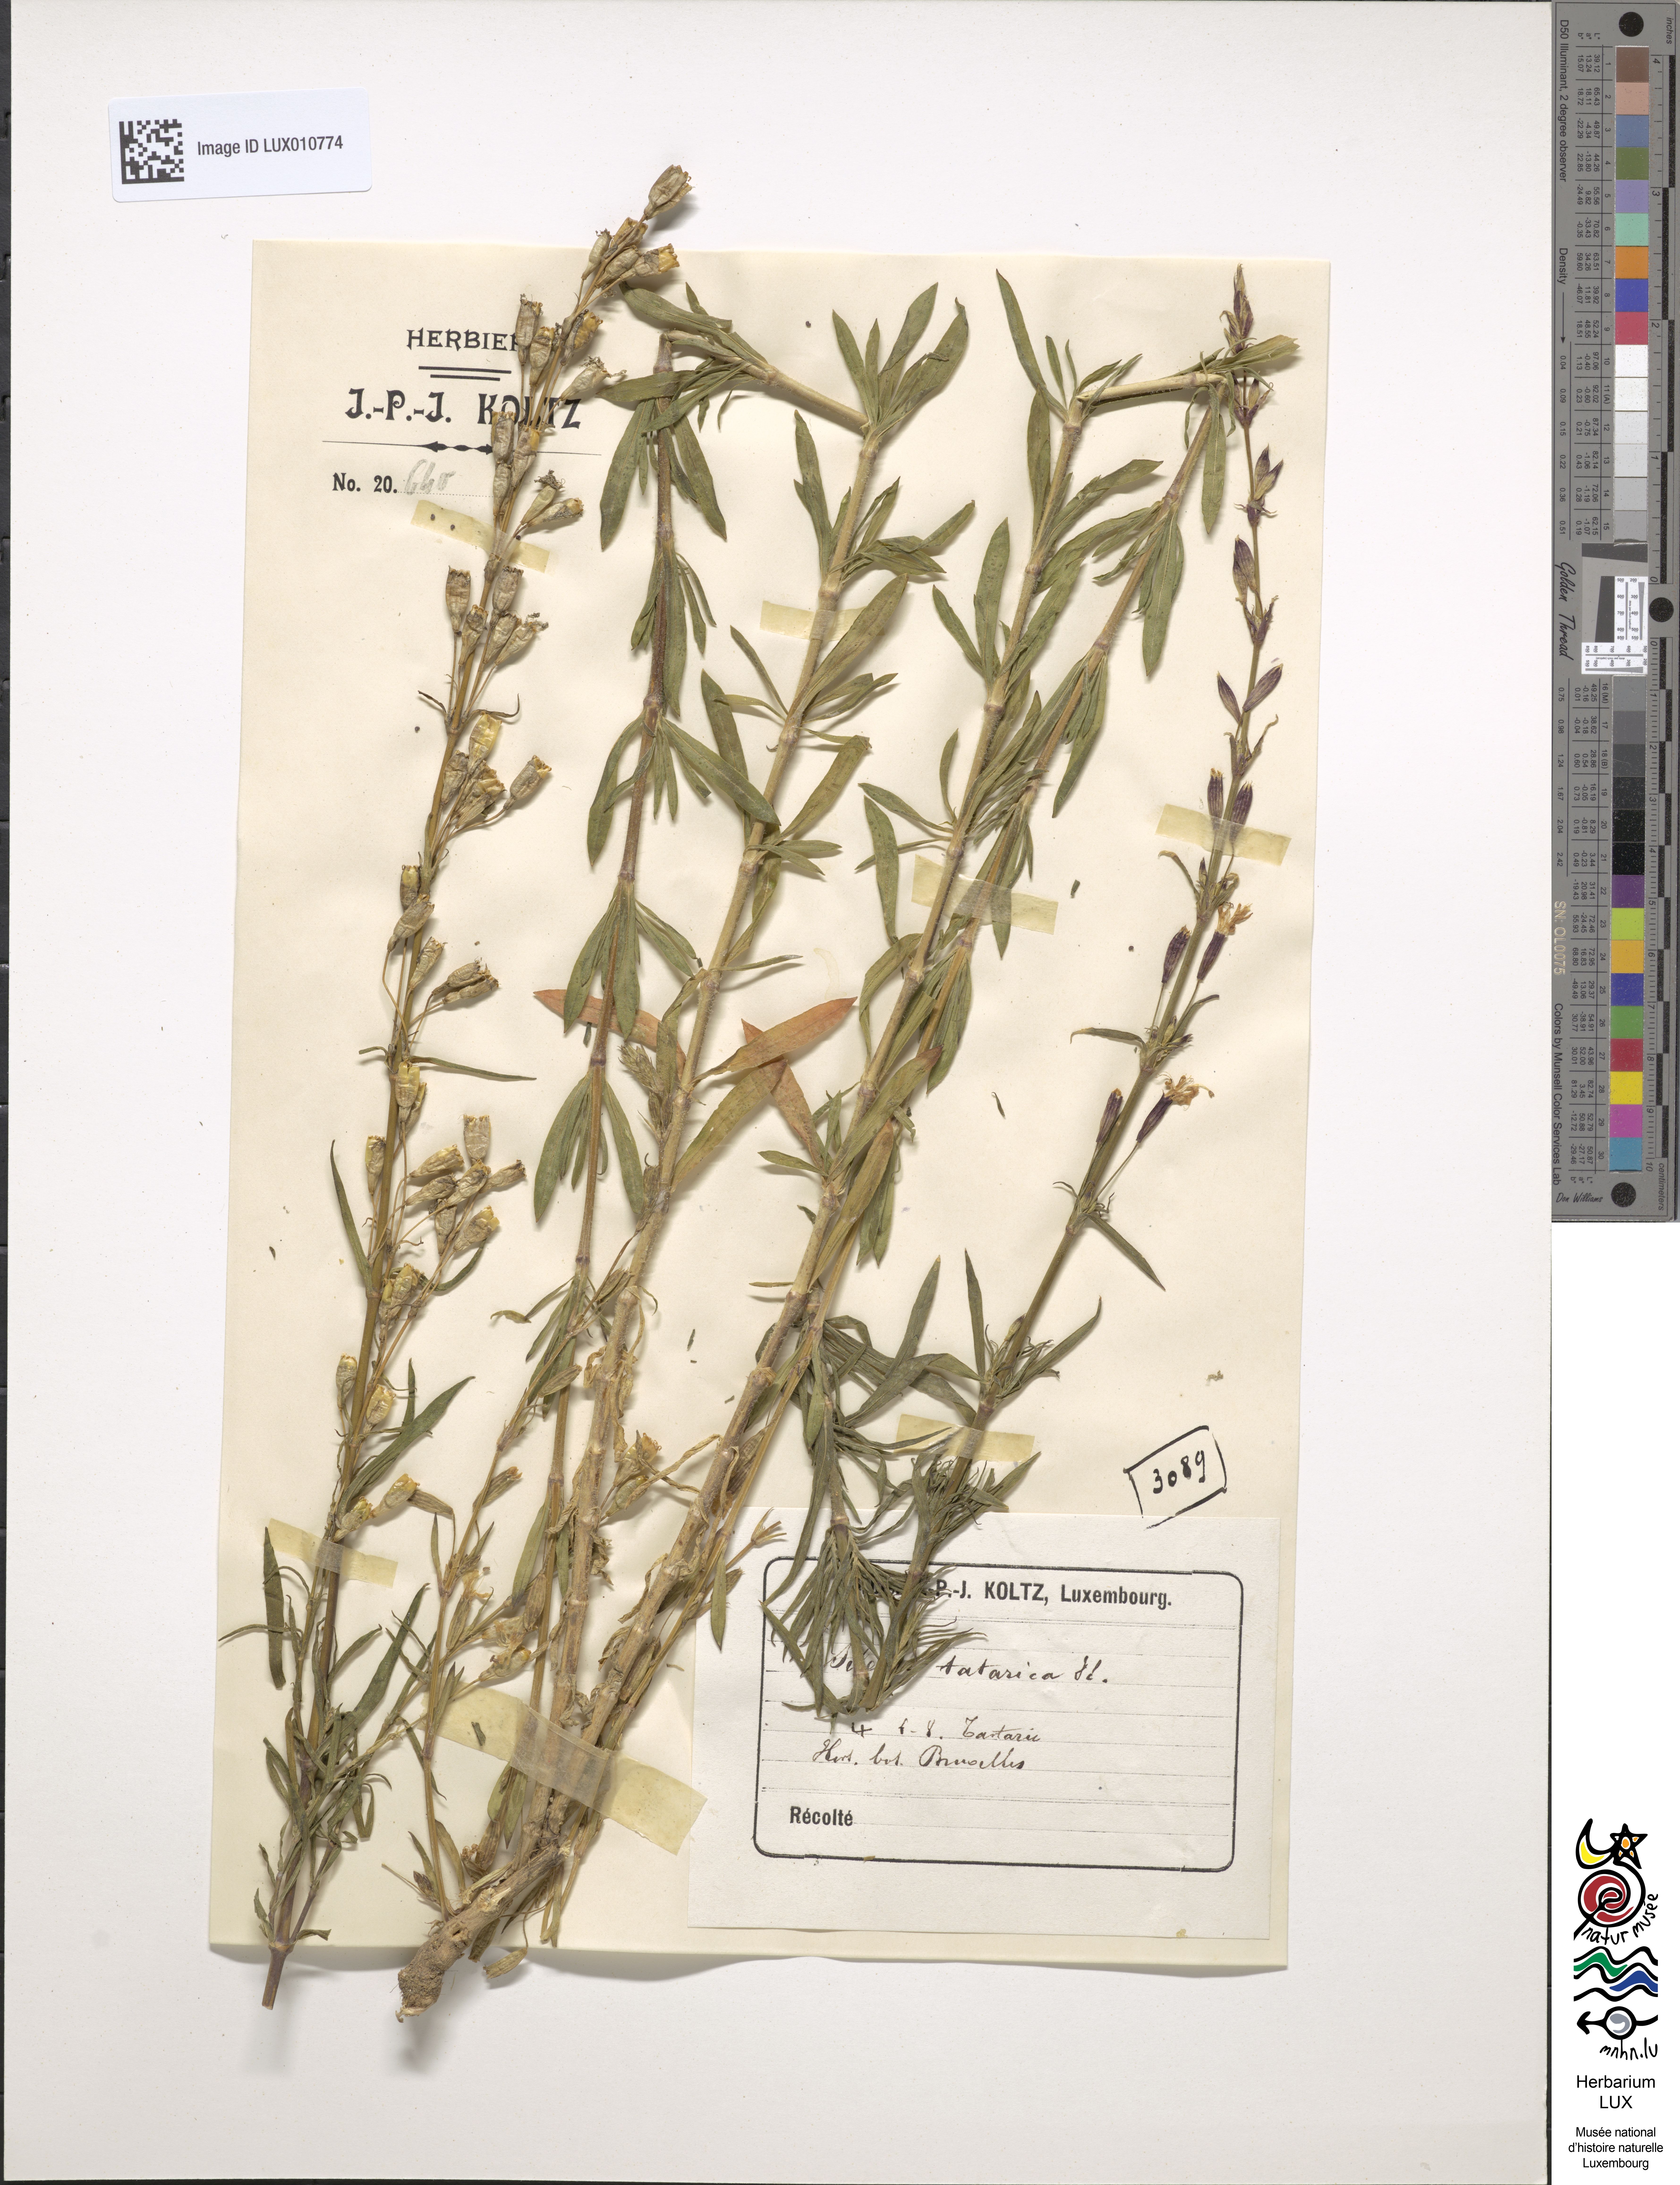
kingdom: Plantae
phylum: Tracheophyta
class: Magnoliopsida
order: Caryophyllales
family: Caryophyllaceae
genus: Silene
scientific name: Silene tatarica
